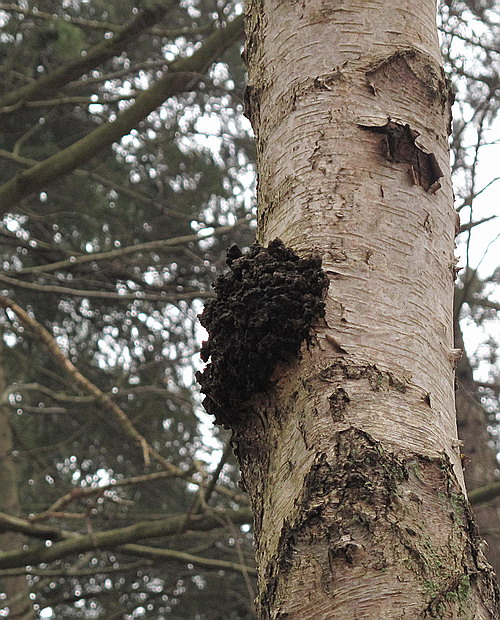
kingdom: Fungi
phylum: Basidiomycota
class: Agaricomycetes
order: Hymenochaetales
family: Hymenochaetaceae
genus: Inonotus
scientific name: Inonotus obliquus
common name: birke-spejlporesvamp
